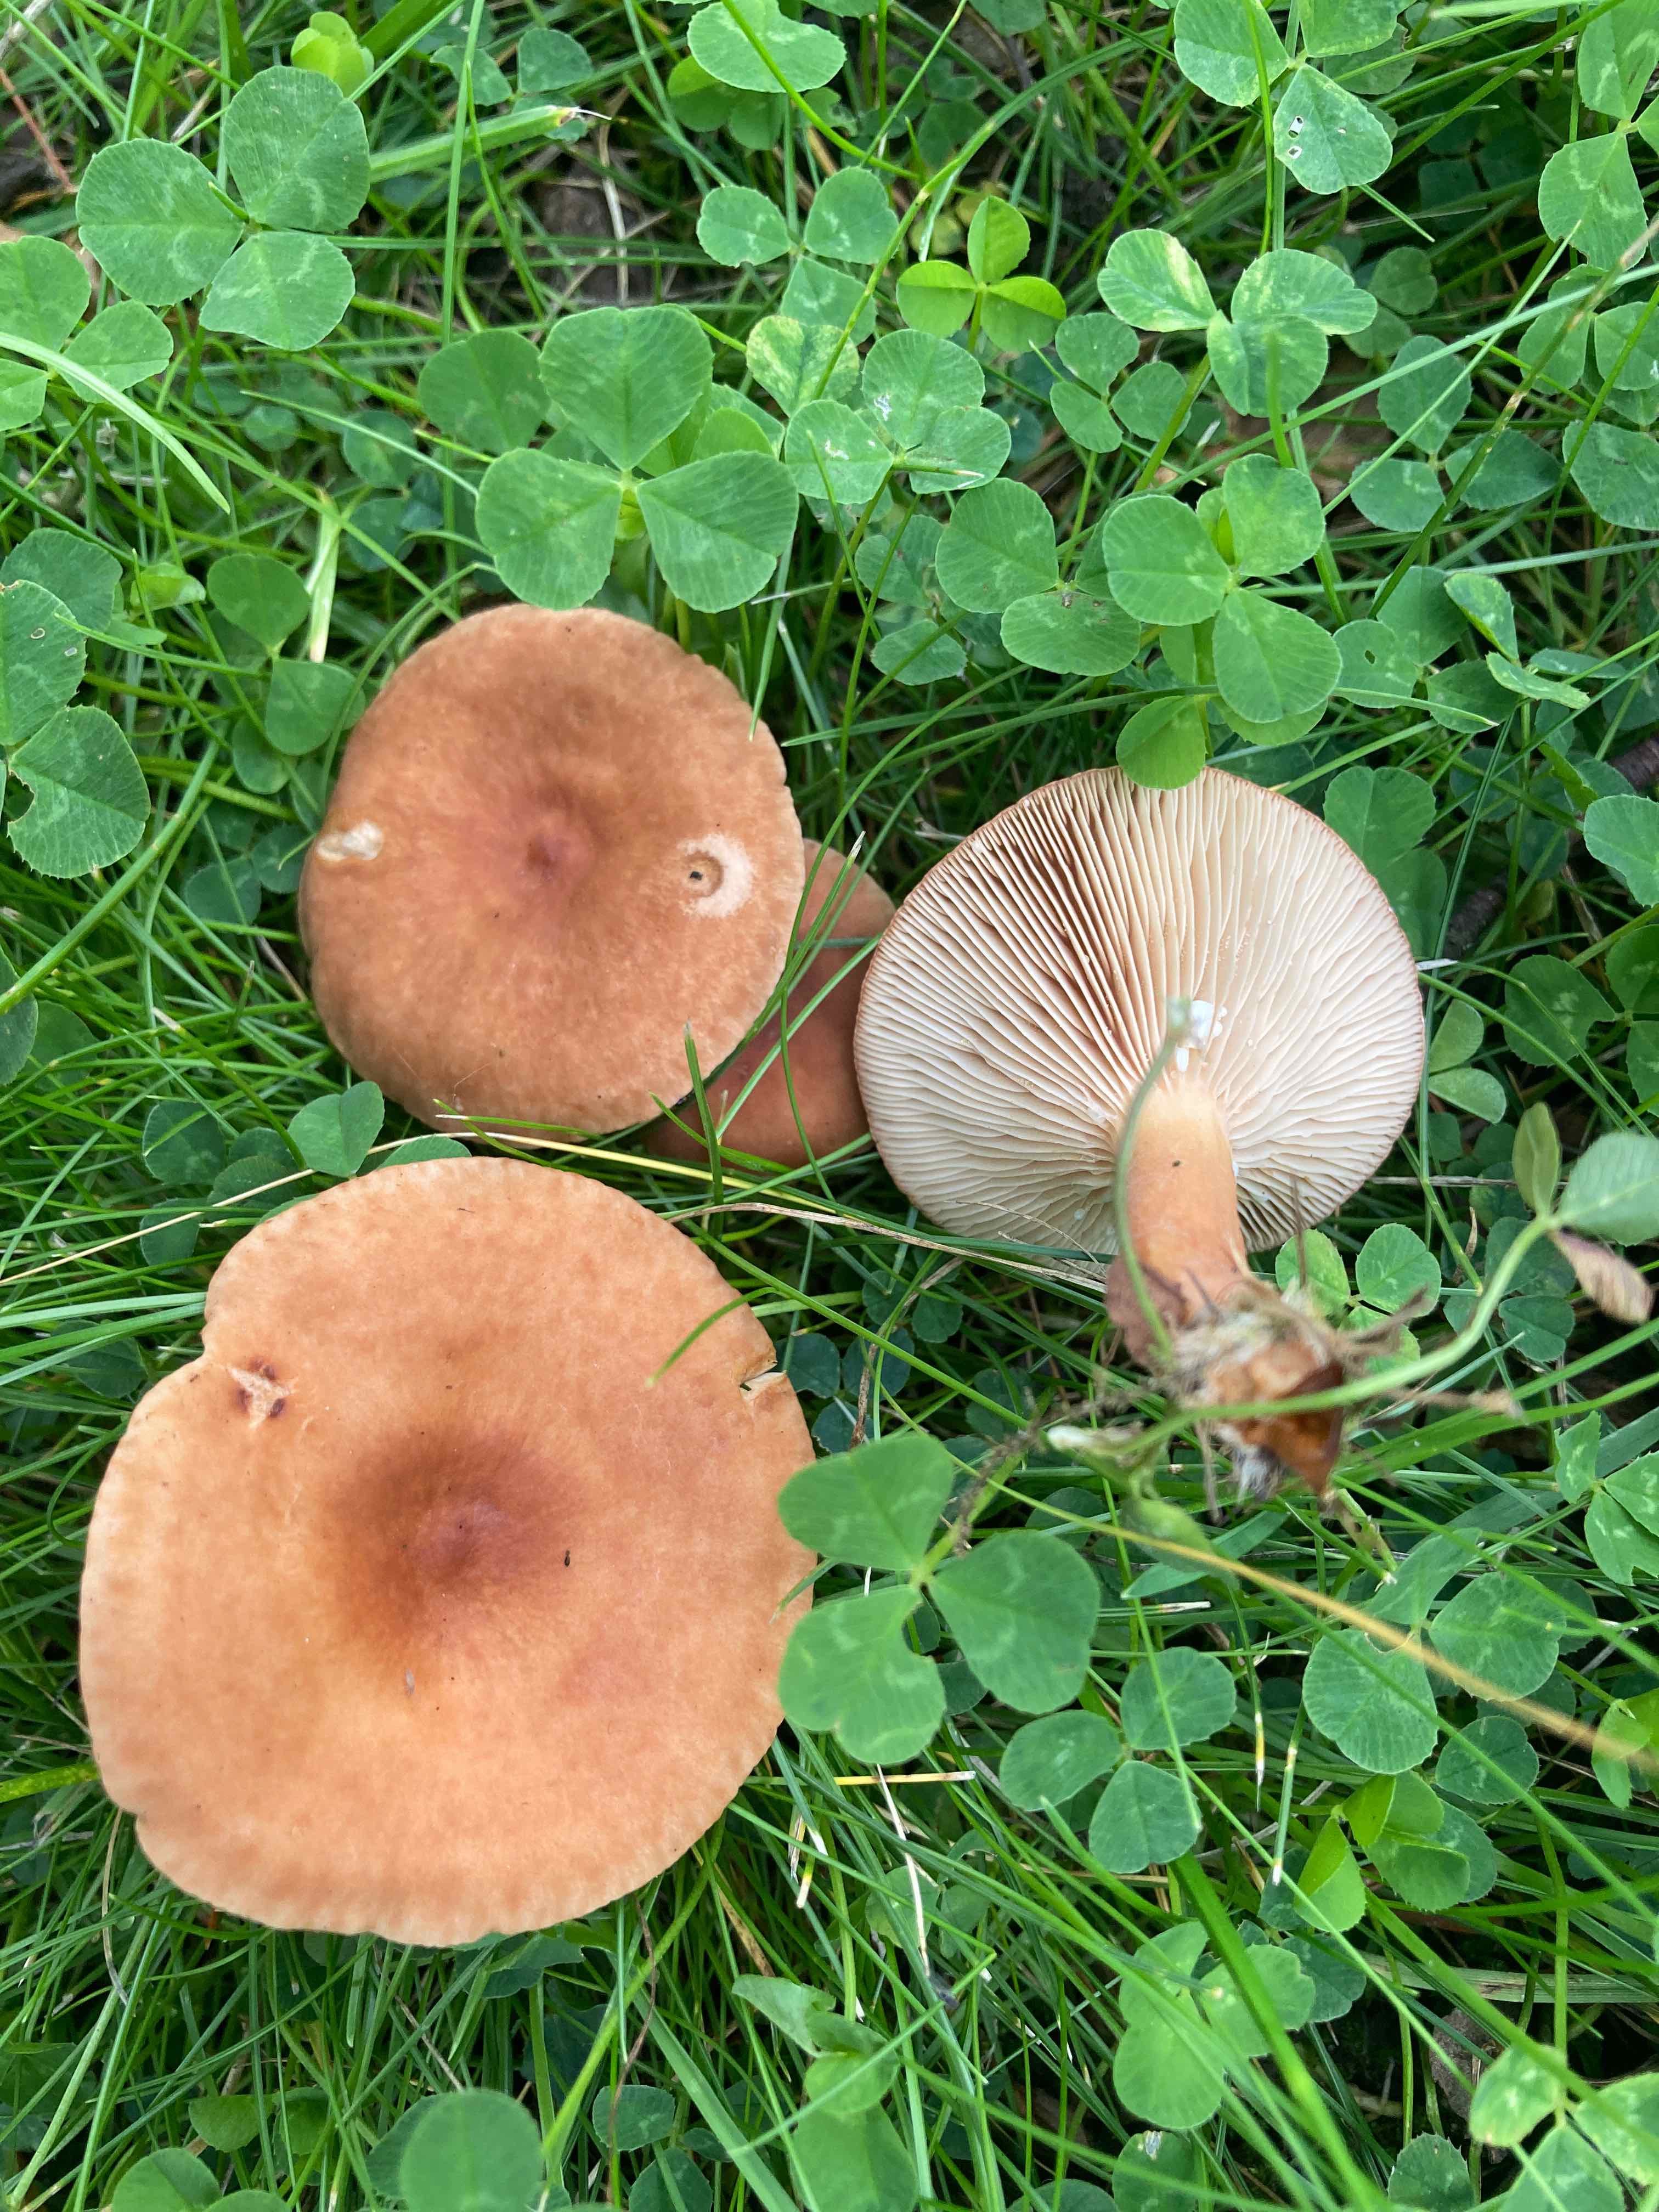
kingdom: Fungi
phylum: Basidiomycota
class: Agaricomycetes
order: Russulales
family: Russulaceae
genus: Lactarius
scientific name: Lactarius subdulcis
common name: sødlig mælkehat
